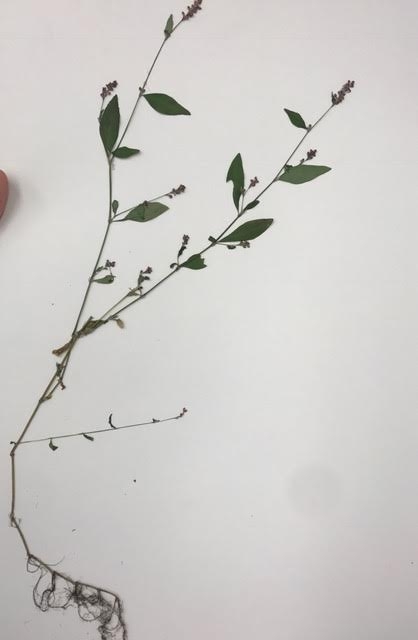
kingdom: Plantae
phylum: Tracheophyta
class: Magnoliopsida
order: Caryophyllales
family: Polygonaceae
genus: Persicaria
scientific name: Persicaria longiseta
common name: Smartweed
